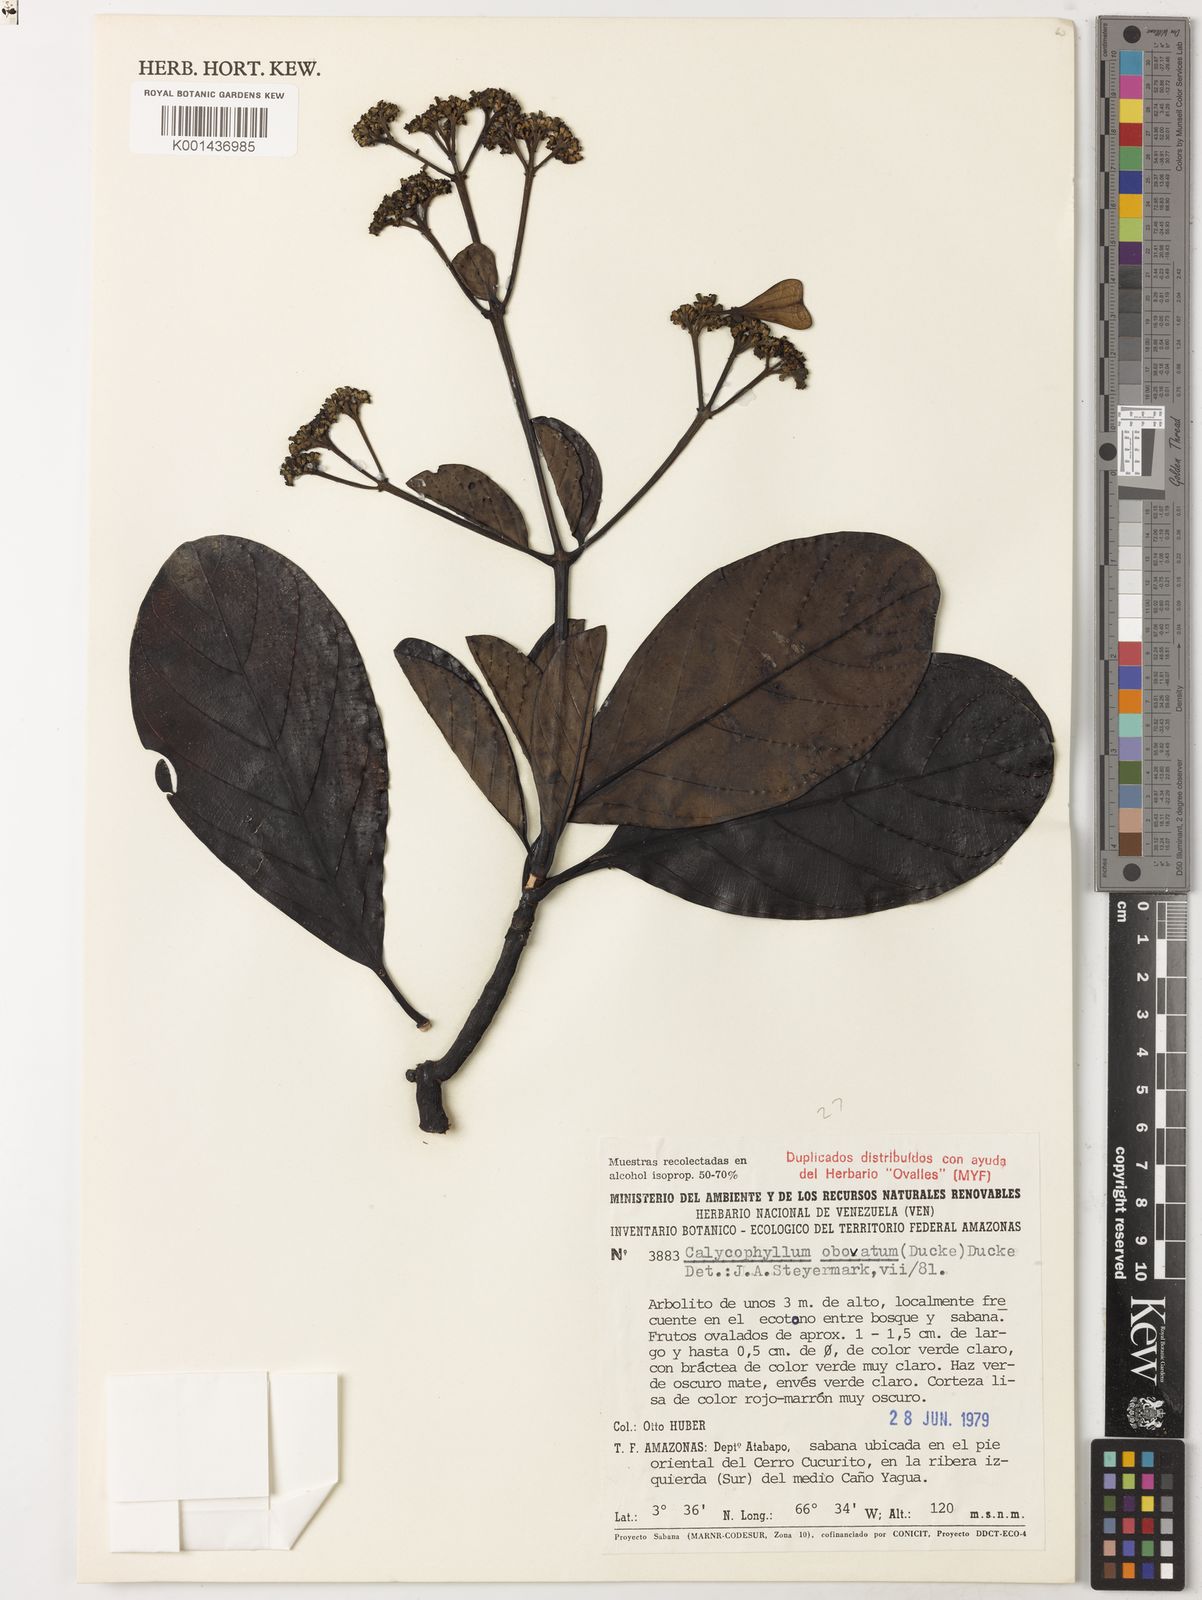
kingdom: Plantae
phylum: Tracheophyta
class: Magnoliopsida
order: Gentianales
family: Rubiaceae
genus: Calycophyllum
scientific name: Calycophyllum obovatum
